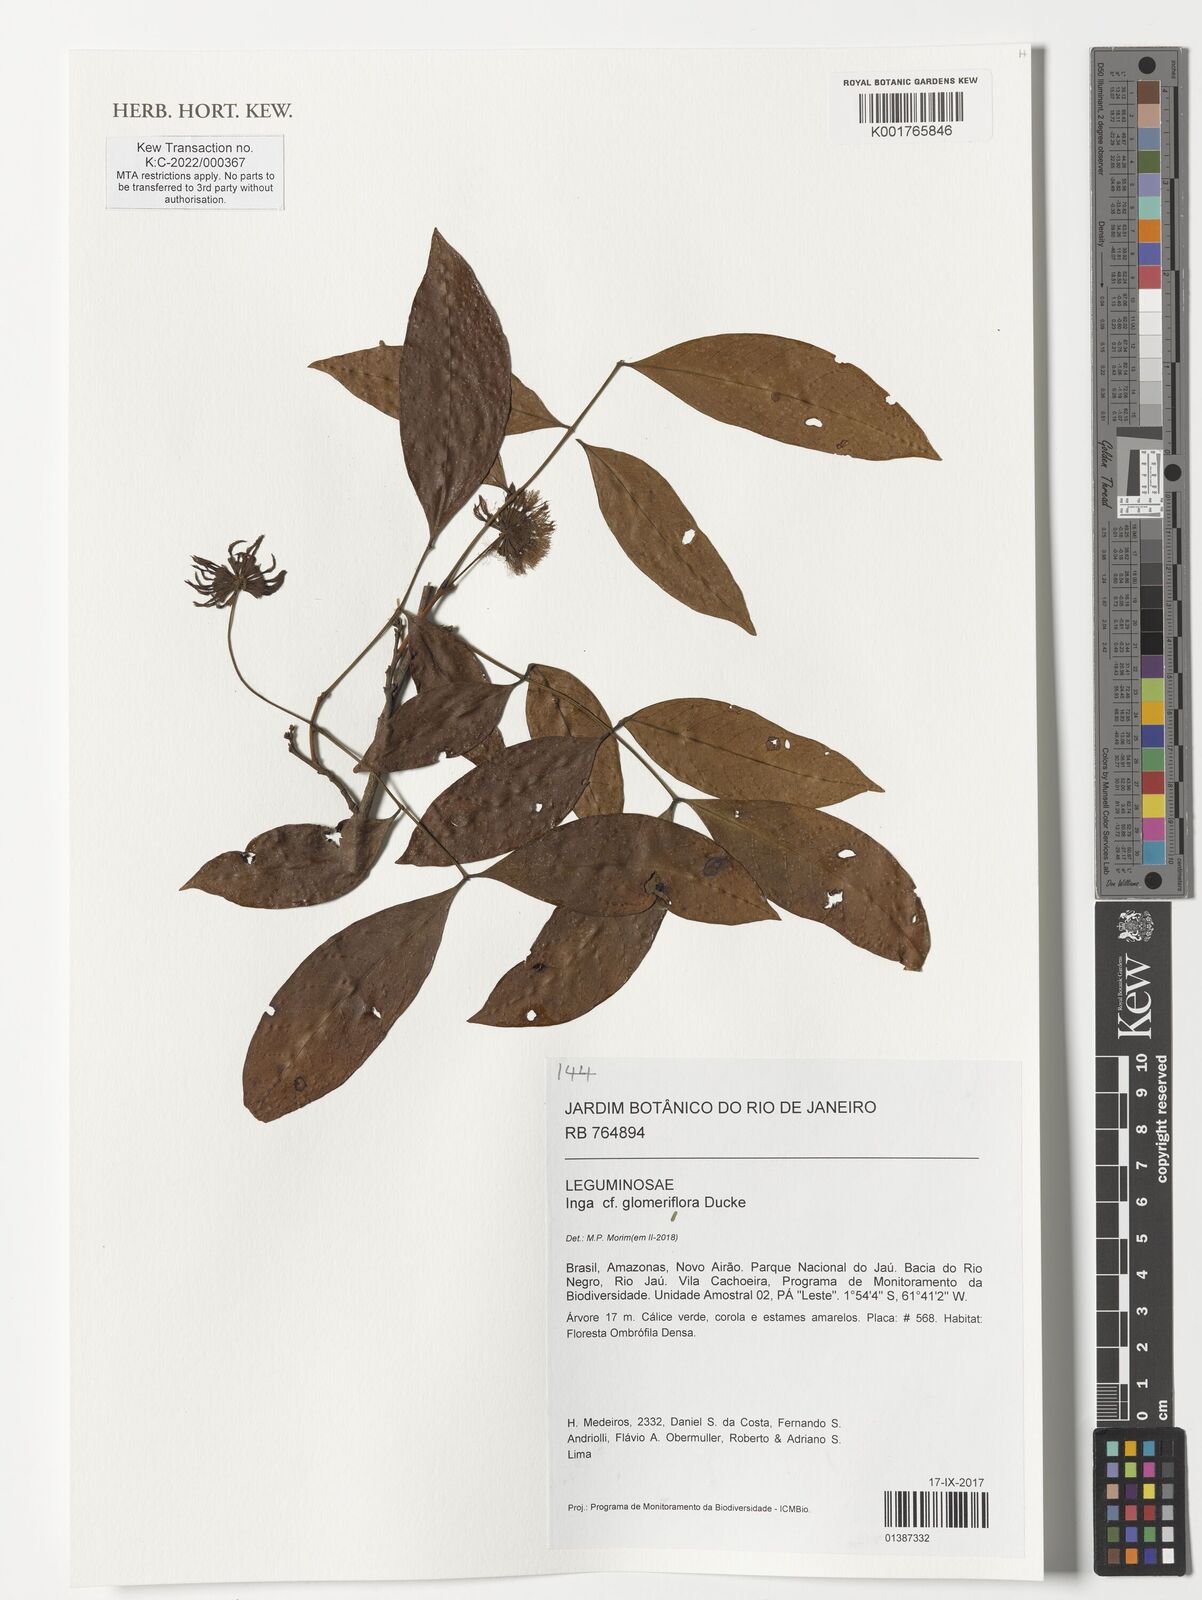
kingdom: Plantae
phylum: Tracheophyta
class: Magnoliopsida
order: Fabales
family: Fabaceae
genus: Inga
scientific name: Inga glomeriflora
